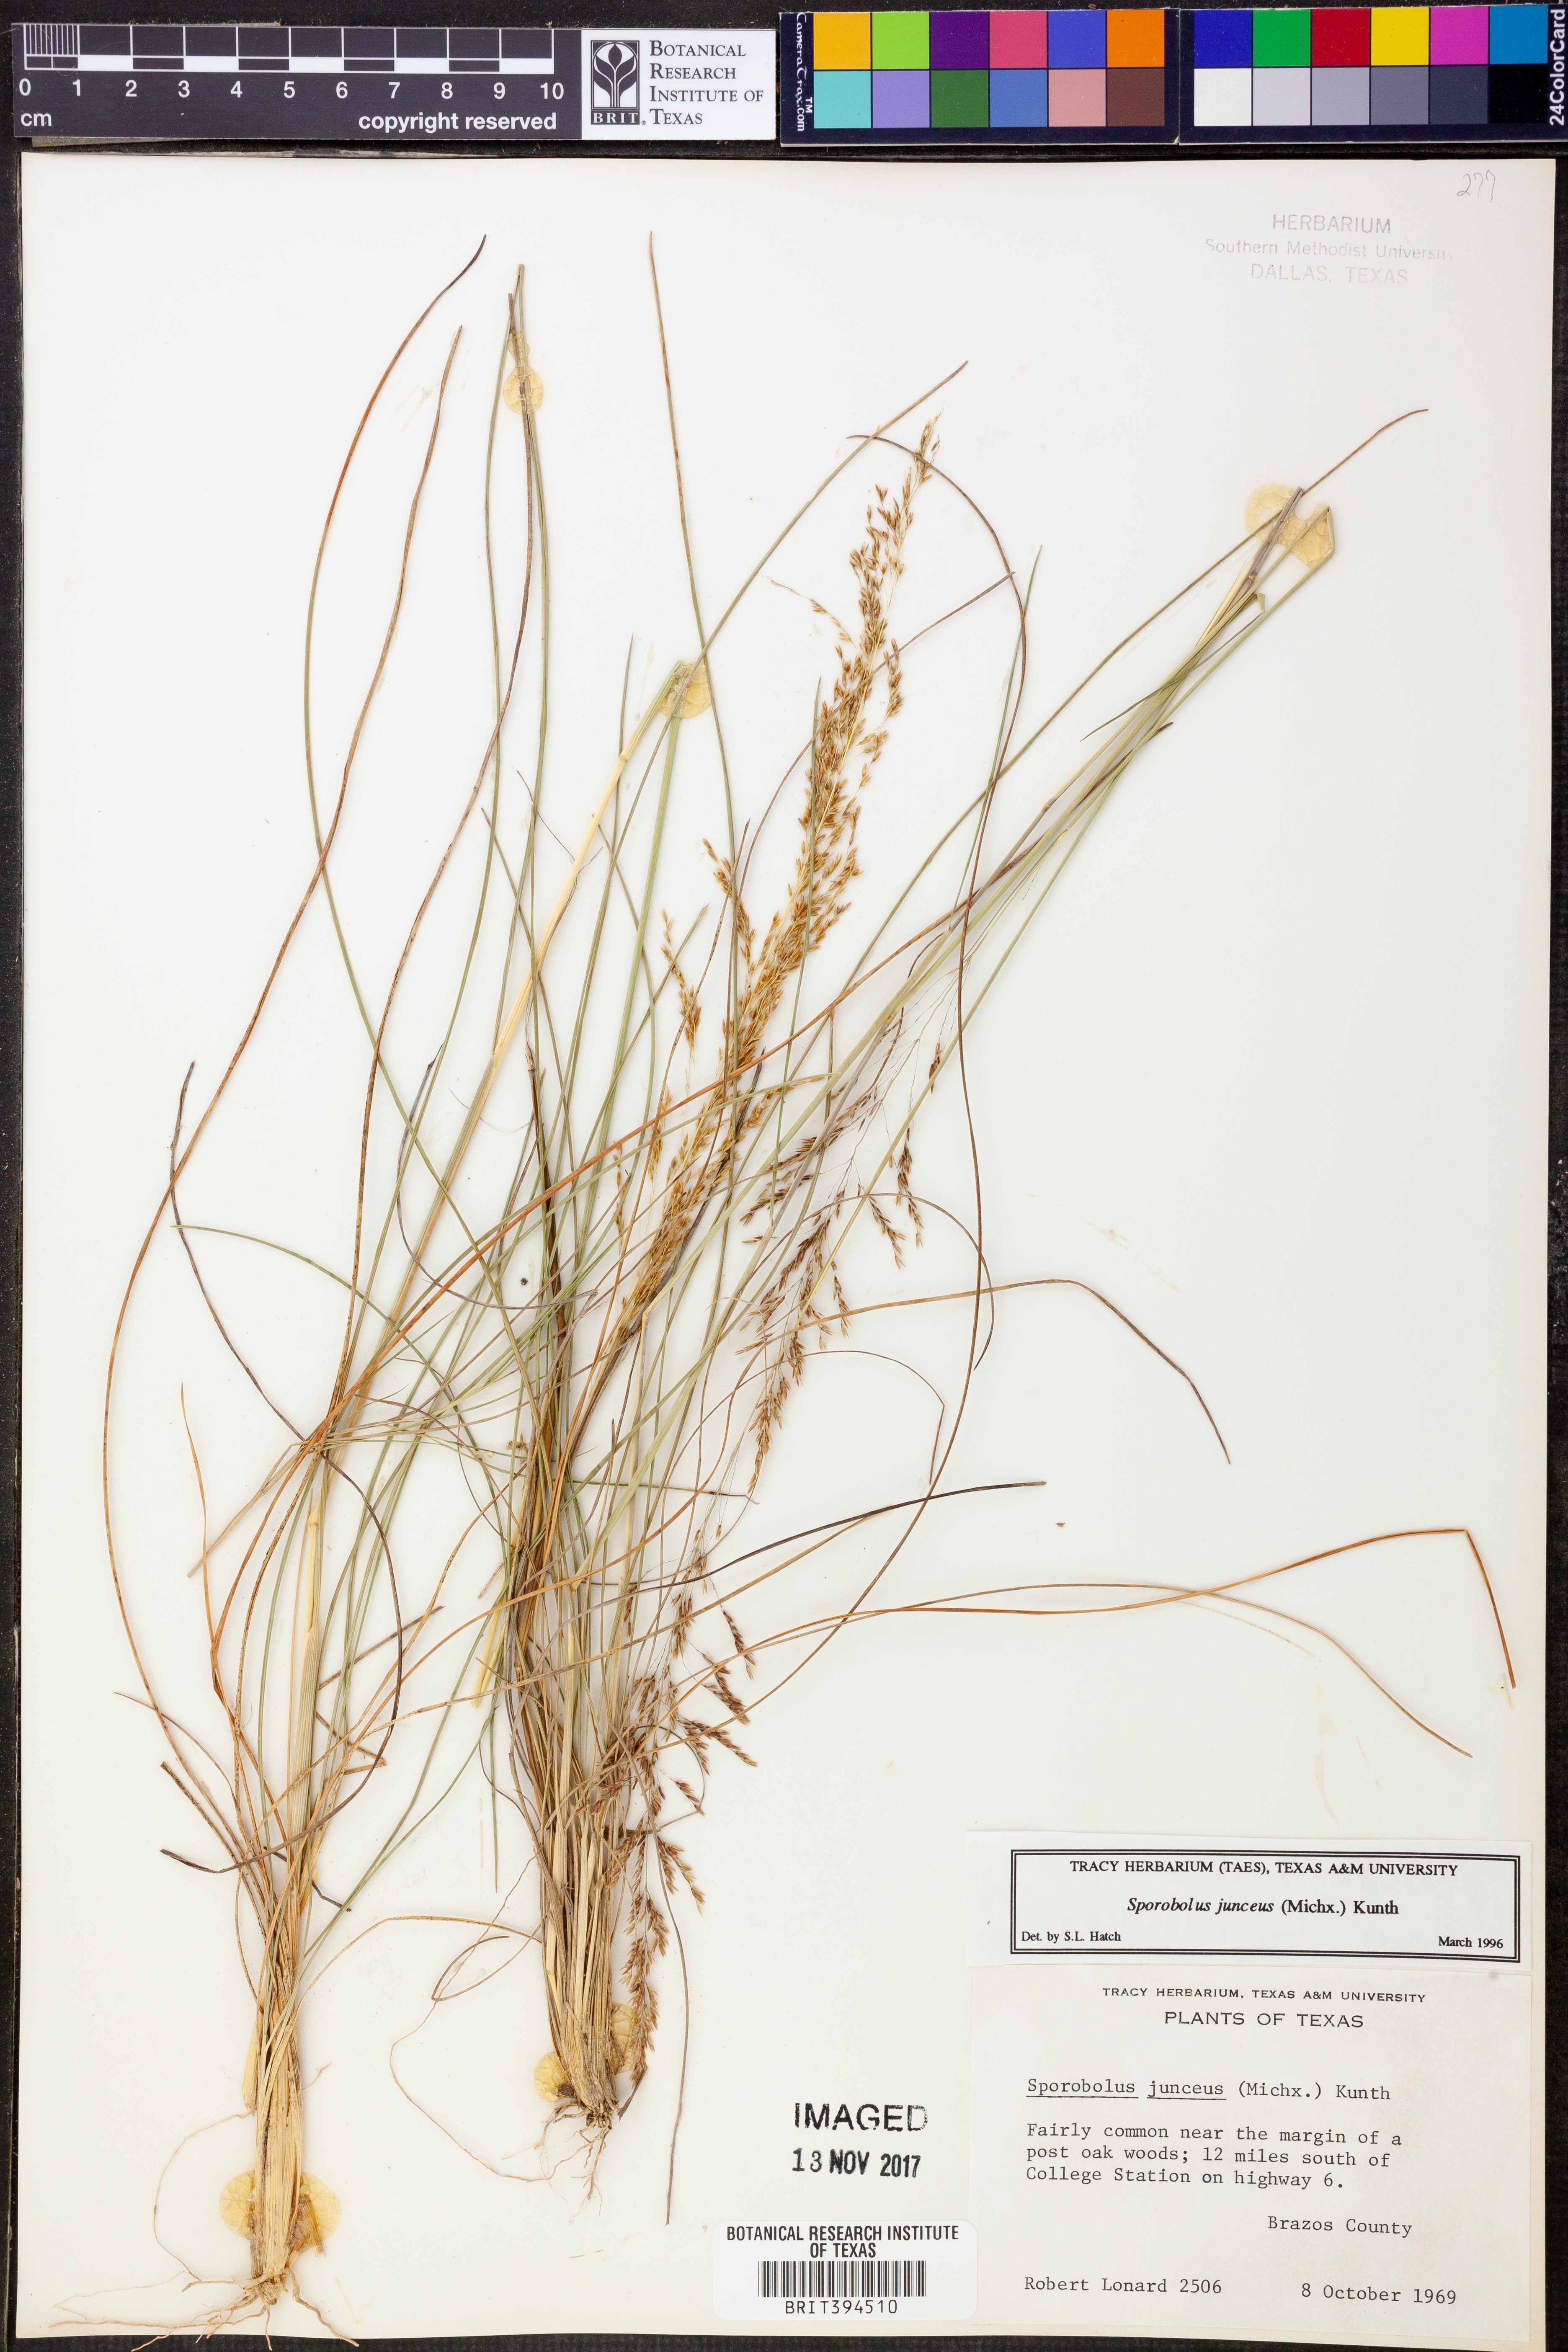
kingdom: Plantae
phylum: Tracheophyta
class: Liliopsida
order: Poales
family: Poaceae
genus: Sporobolus
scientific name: Sporobolus junceus
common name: Lizard grass
